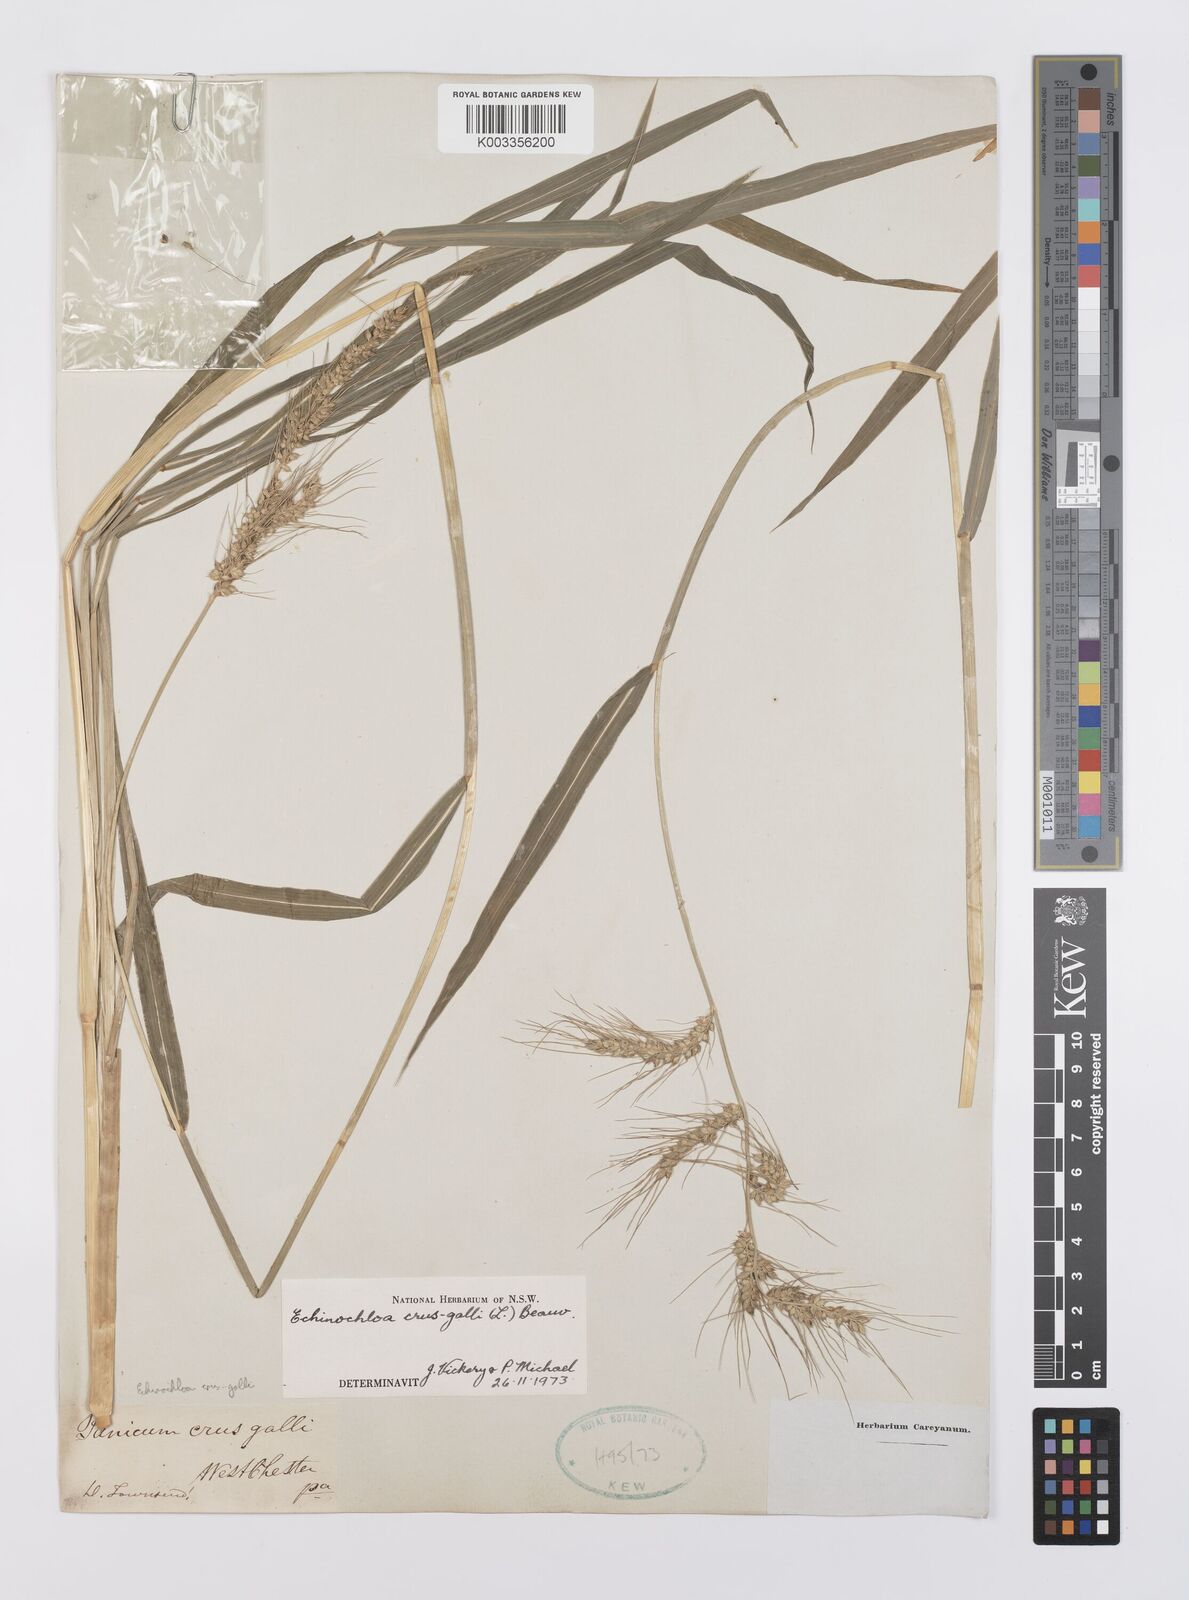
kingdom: Plantae
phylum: Tracheophyta
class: Liliopsida
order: Poales
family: Poaceae
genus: Echinochloa
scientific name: Echinochloa crus-galli
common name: Cockspur
